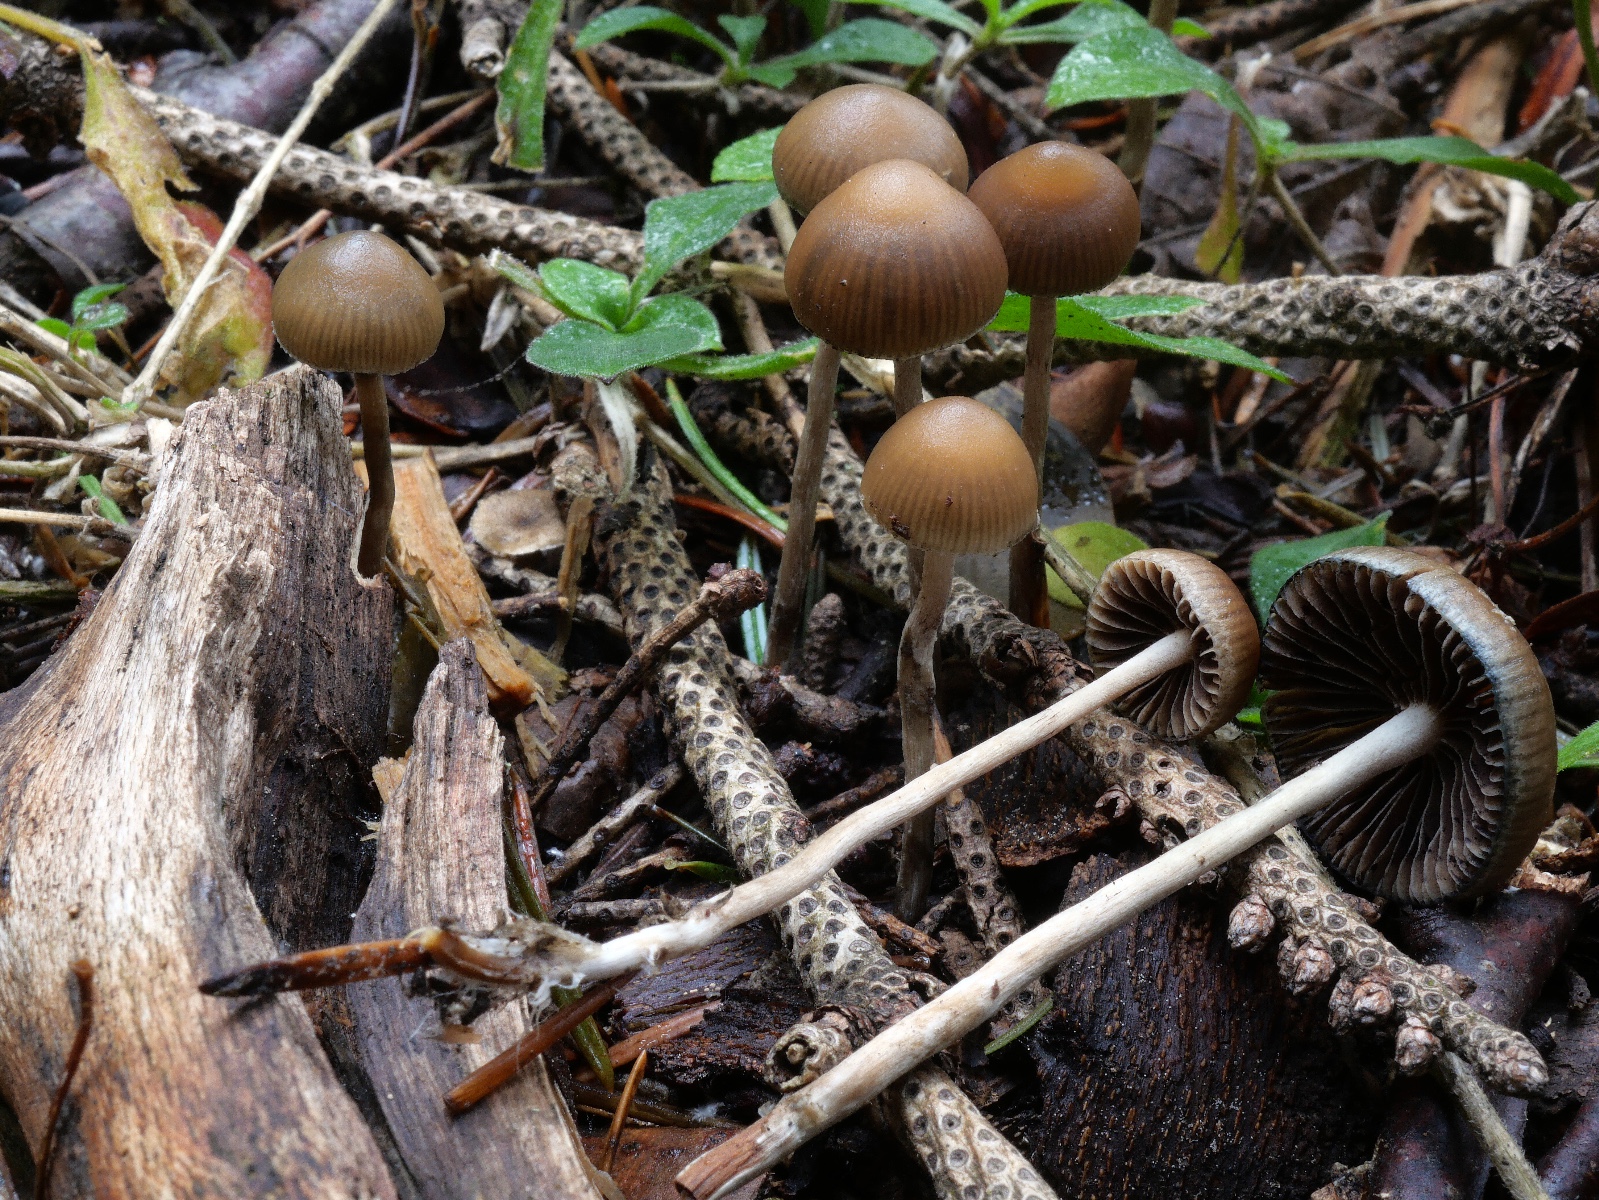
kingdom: Fungi
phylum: Basidiomycota
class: Agaricomycetes
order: Agaricales
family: Hymenogastraceae
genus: Psilocybe
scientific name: Psilocybe arcana
